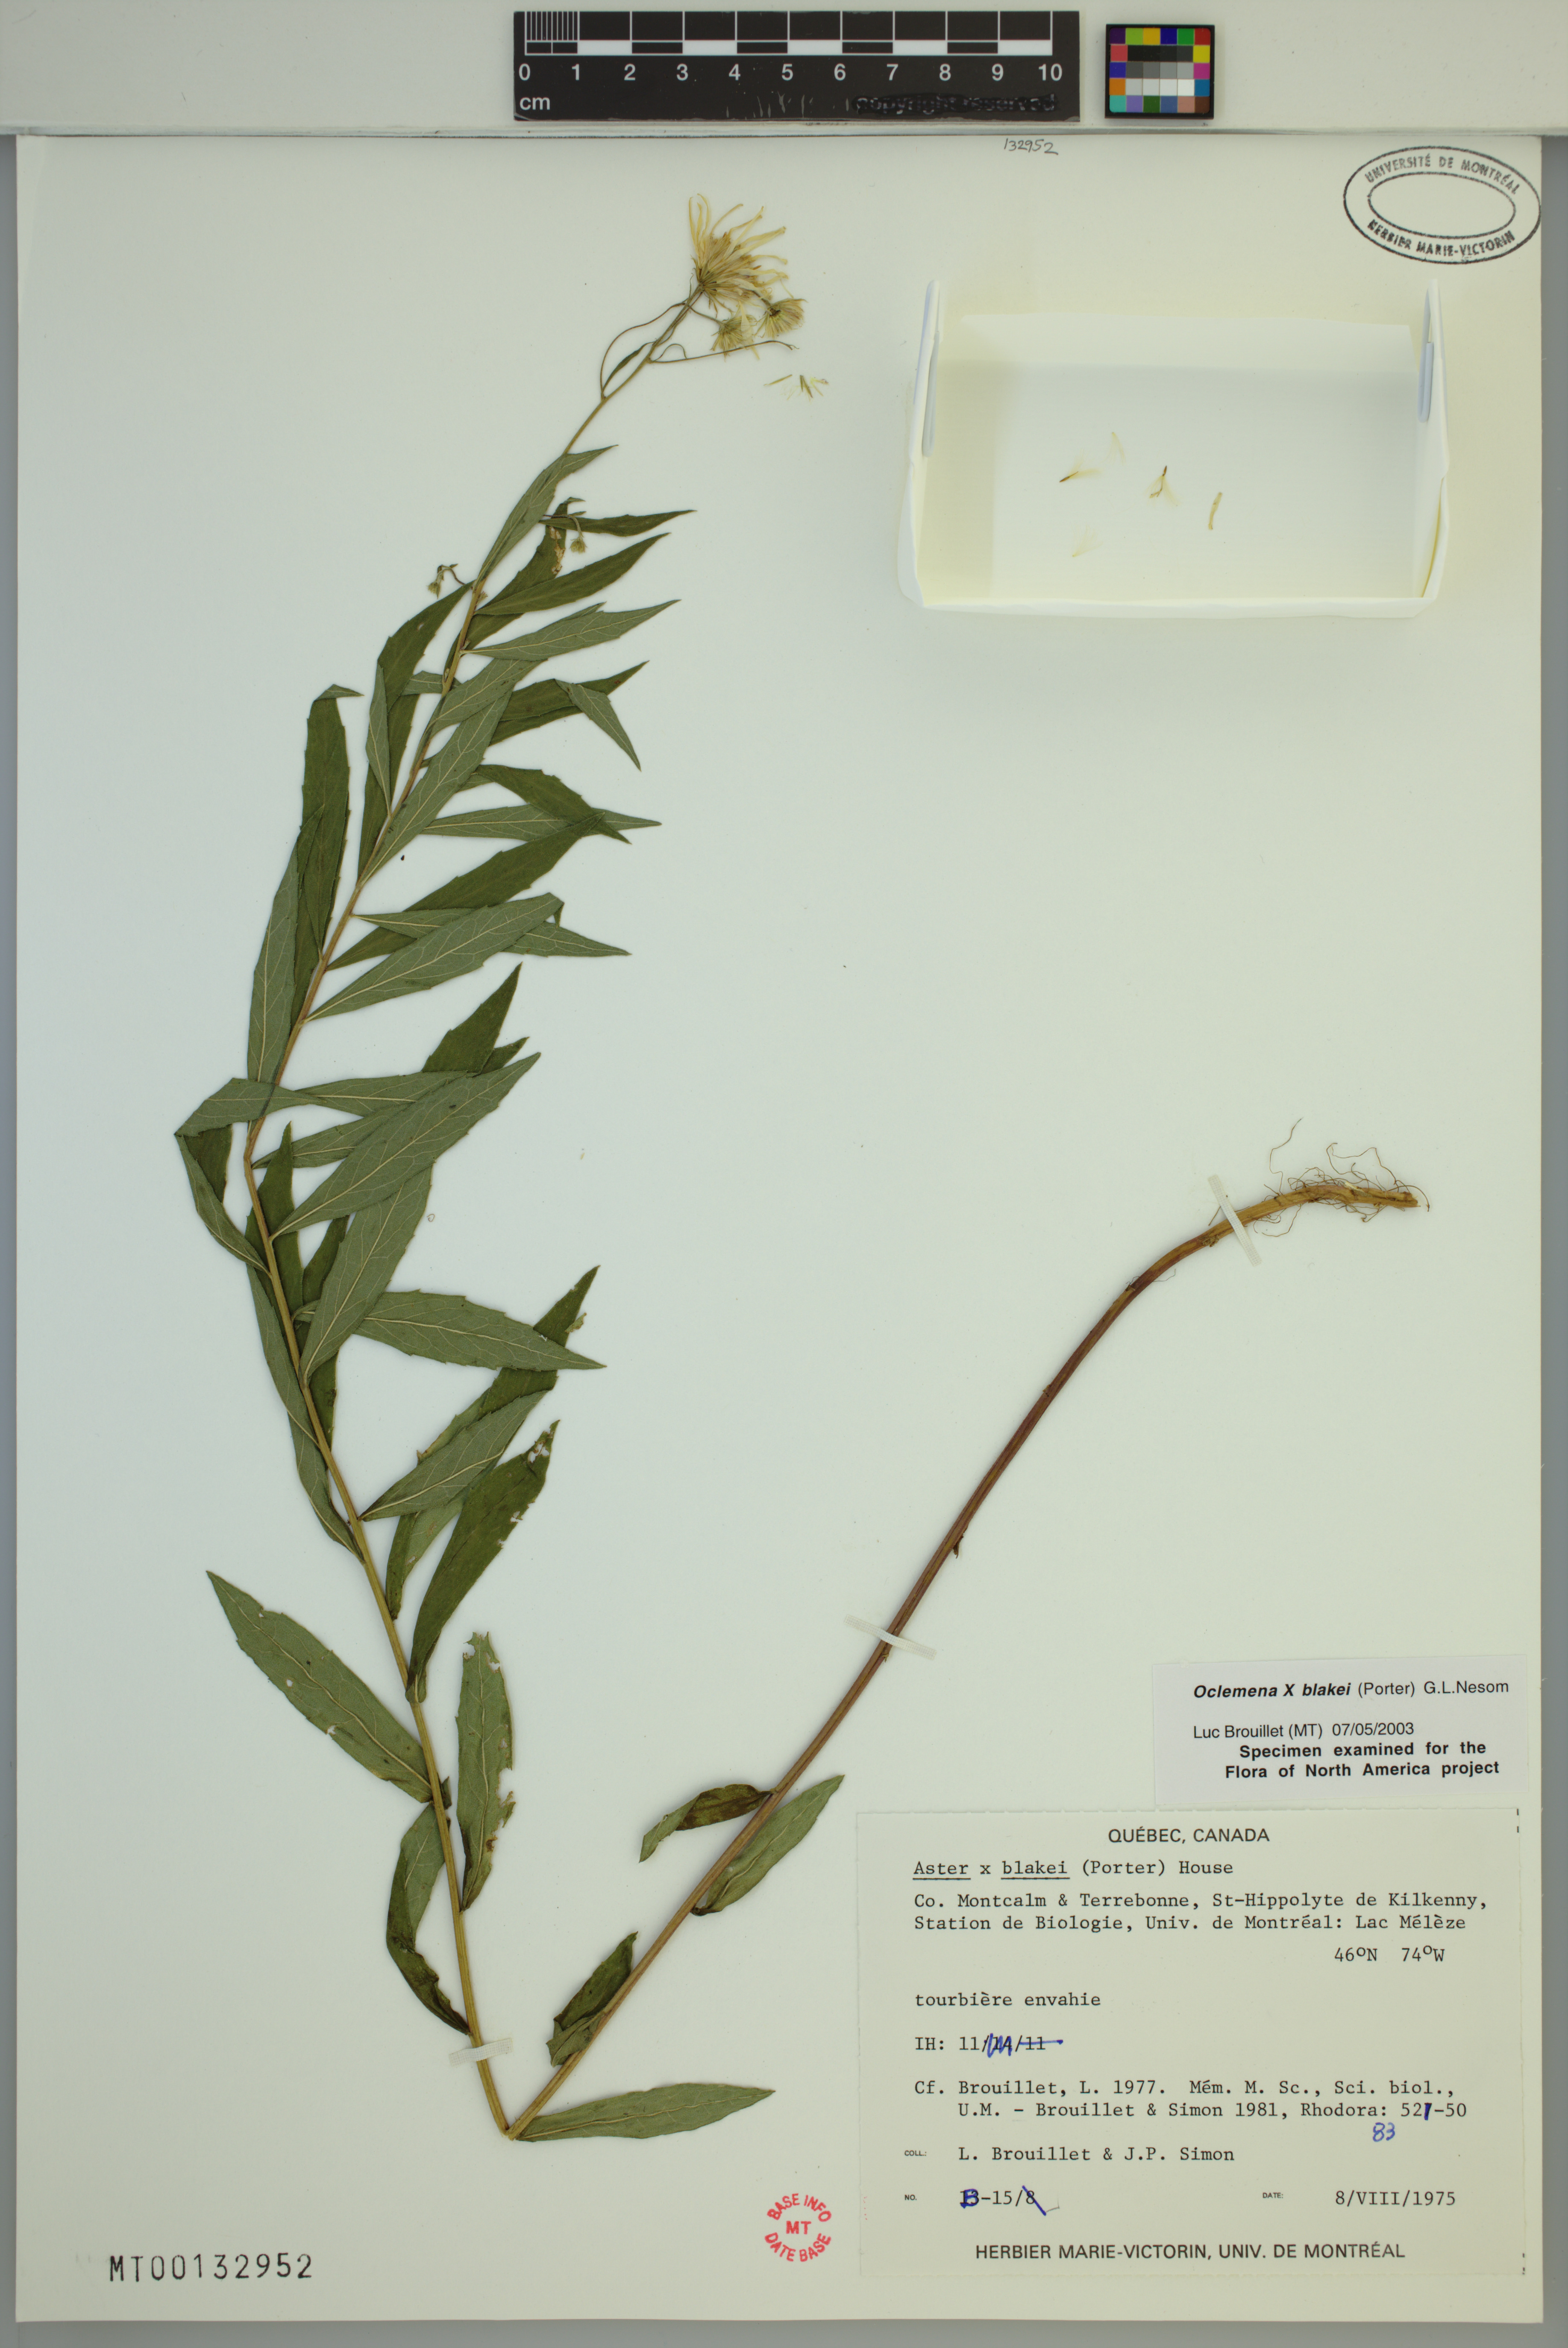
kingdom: Plantae
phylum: Tracheophyta
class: Magnoliopsida
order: Asterales
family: Asteraceae
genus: Oclemena
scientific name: Oclemena blakei
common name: Blake's aster
